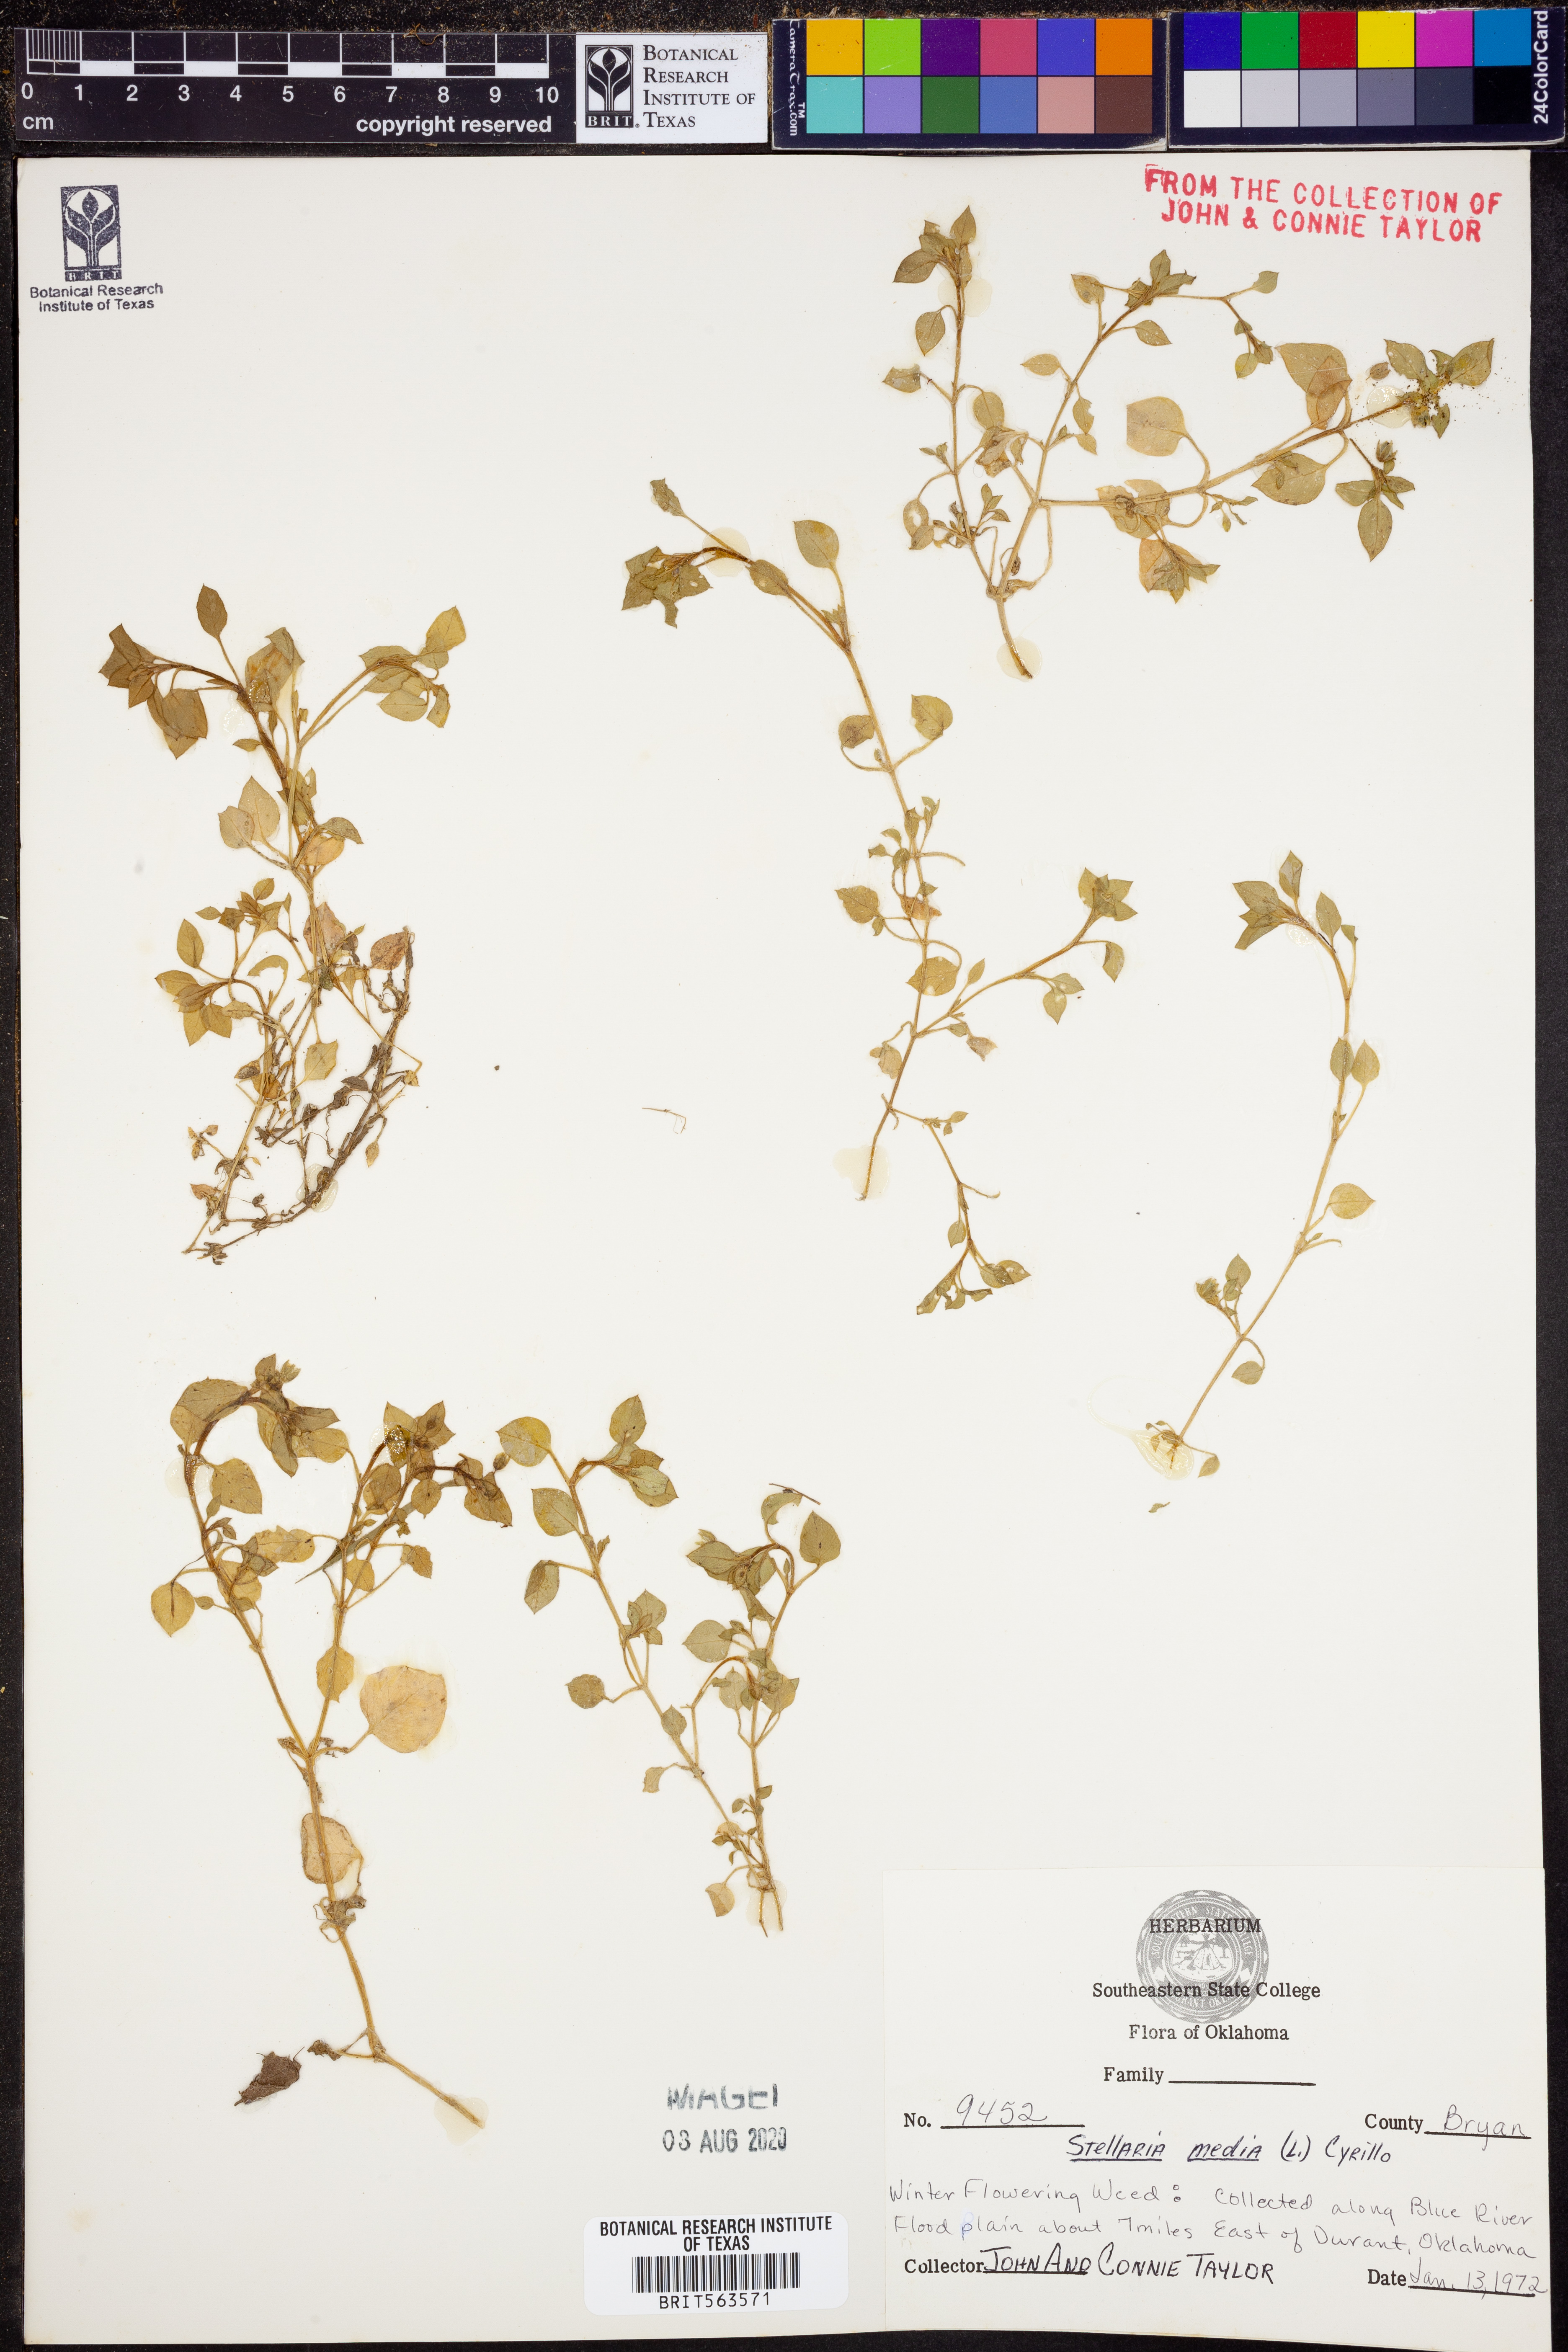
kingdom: Plantae
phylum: Tracheophyta
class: Magnoliopsida
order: Caryophyllales
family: Caryophyllaceae
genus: Stellaria
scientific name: Stellaria media
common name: Common chickweed
